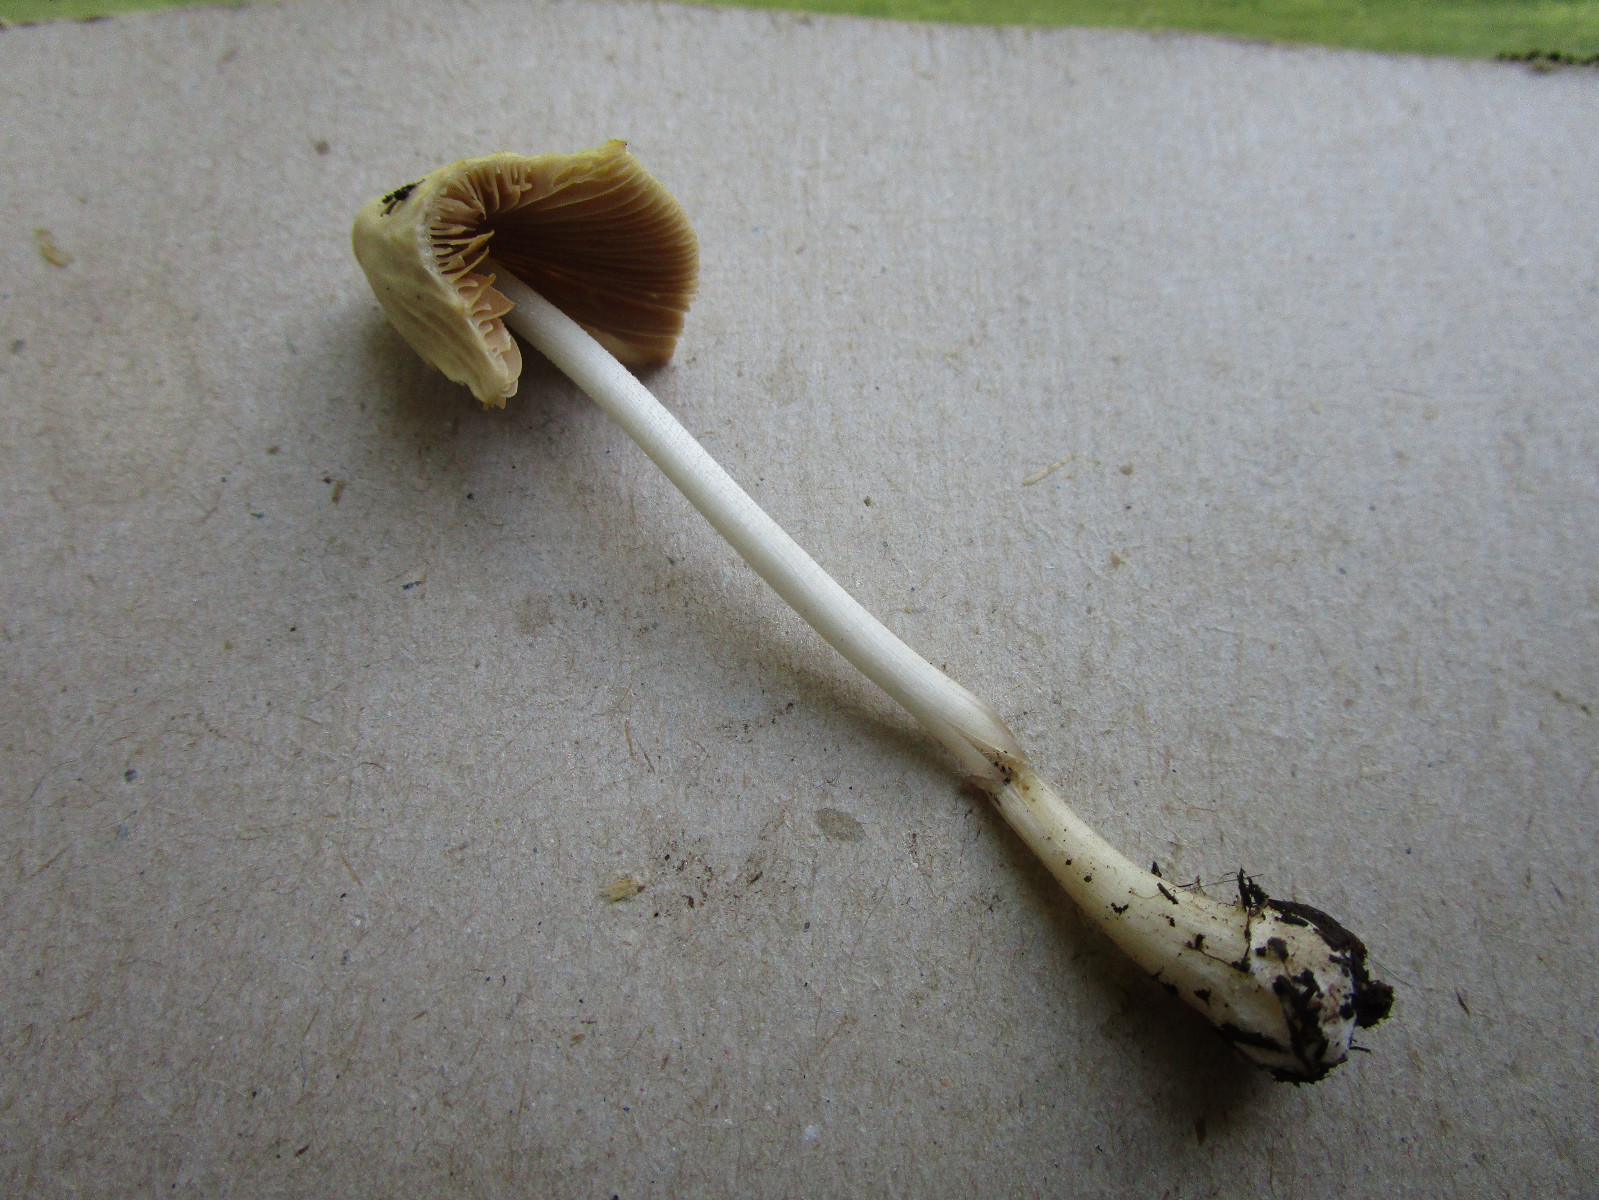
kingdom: Fungi
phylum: Basidiomycota
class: Agaricomycetes
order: Agaricales
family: Bolbitiaceae
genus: Conocybe
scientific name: Conocybe
